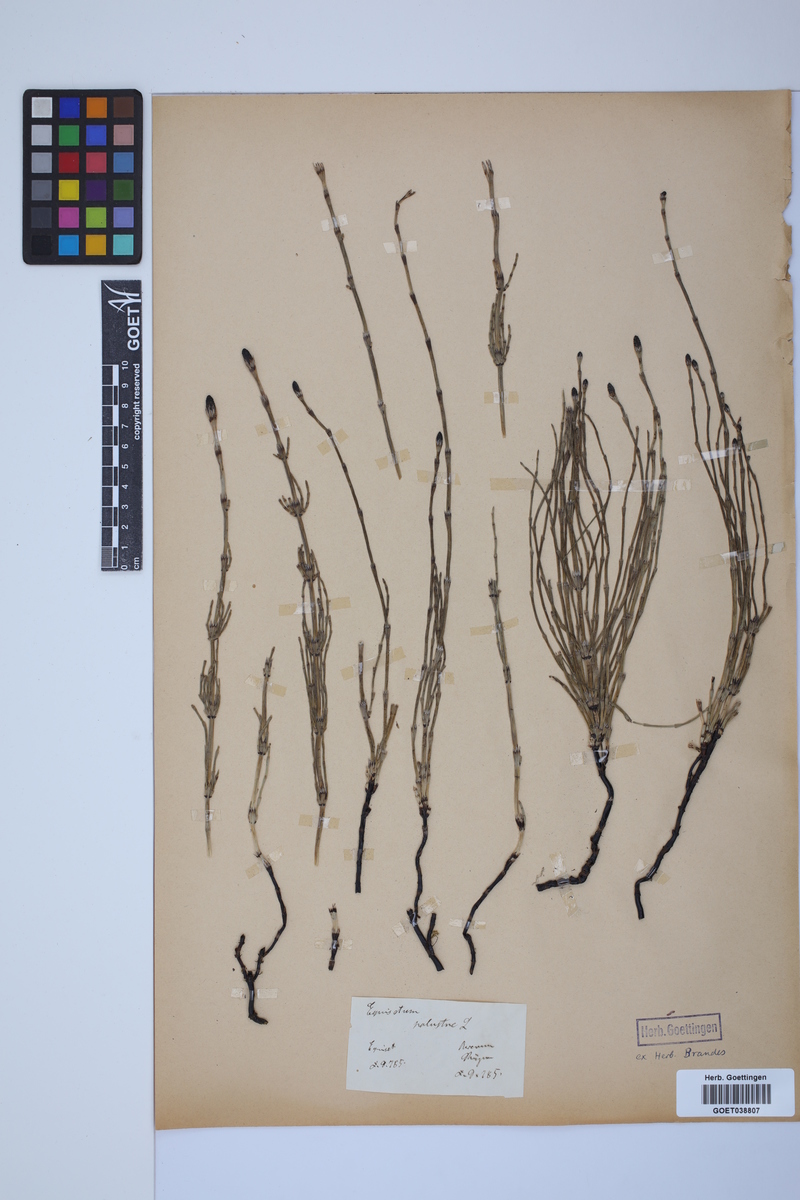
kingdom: Plantae
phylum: Tracheophyta
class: Polypodiopsida
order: Equisetales
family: Equisetaceae
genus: Equisetum
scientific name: Equisetum palustre
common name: Marsh horsetail
